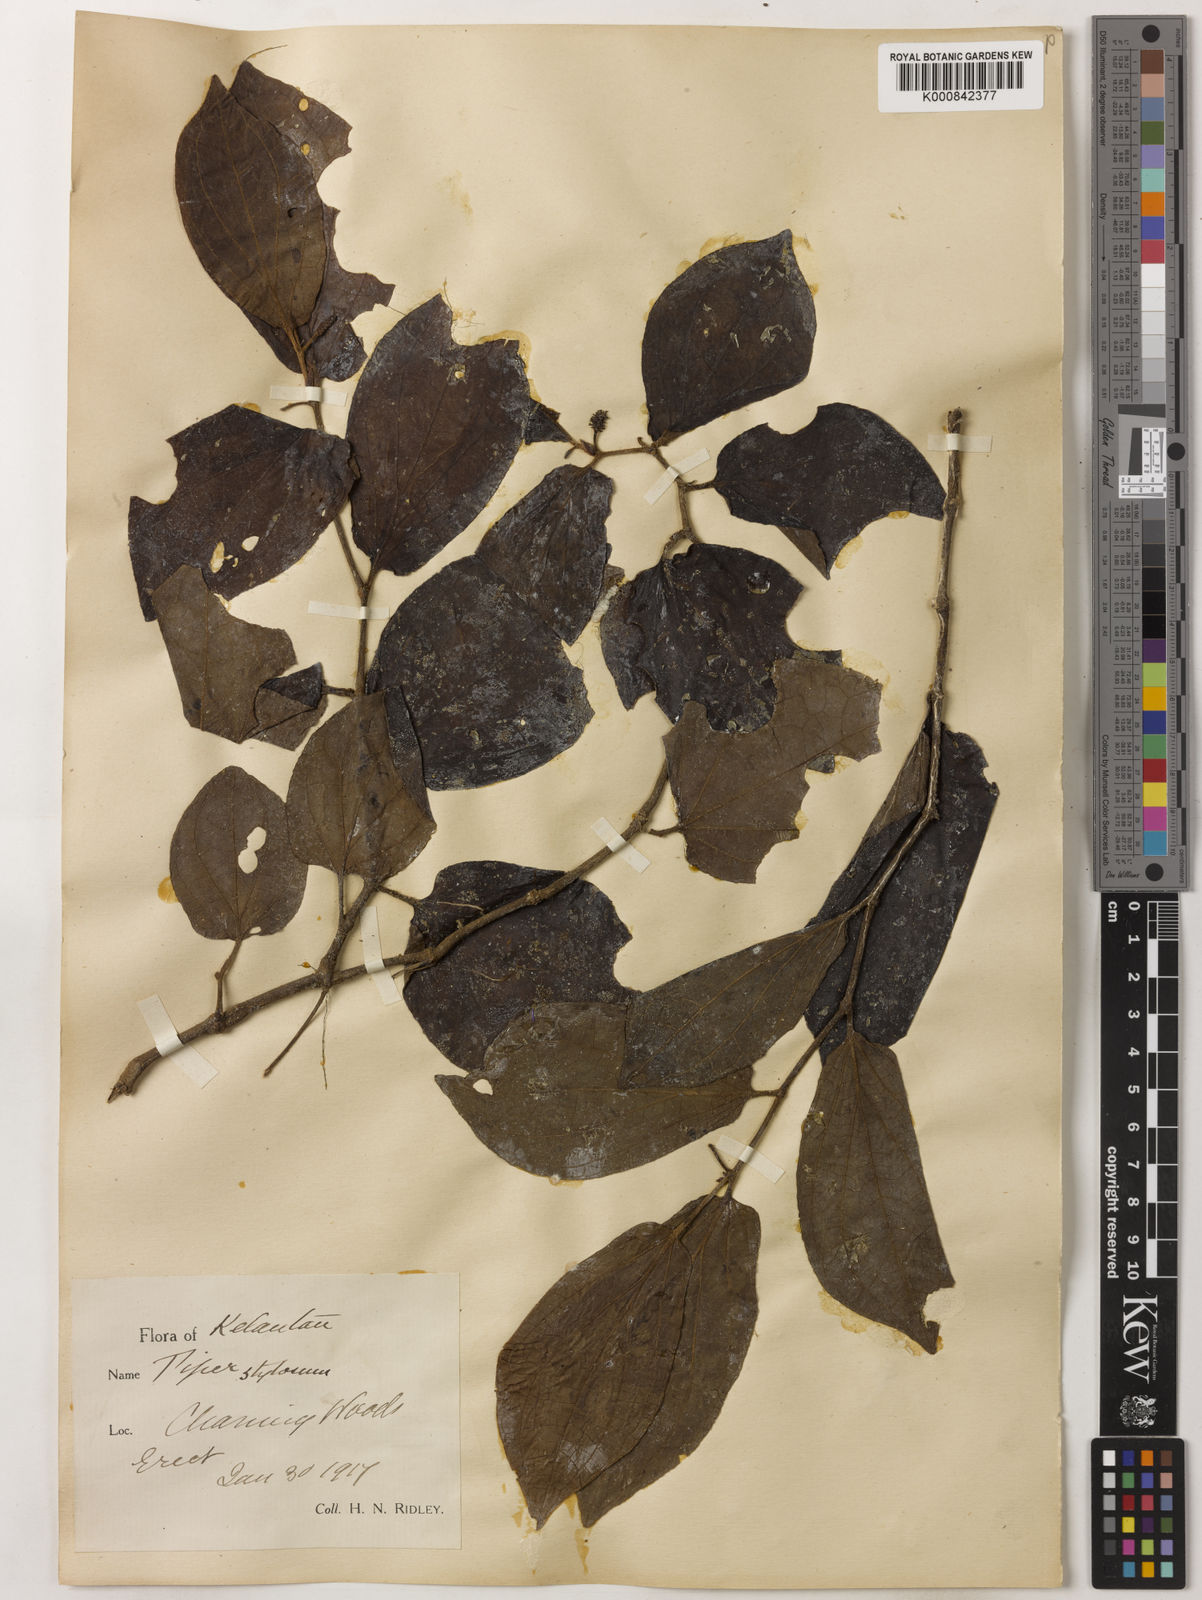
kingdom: Plantae
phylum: Tracheophyta
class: Magnoliopsida
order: Piperales
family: Piperaceae
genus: Piper
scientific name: Piper rostratum
